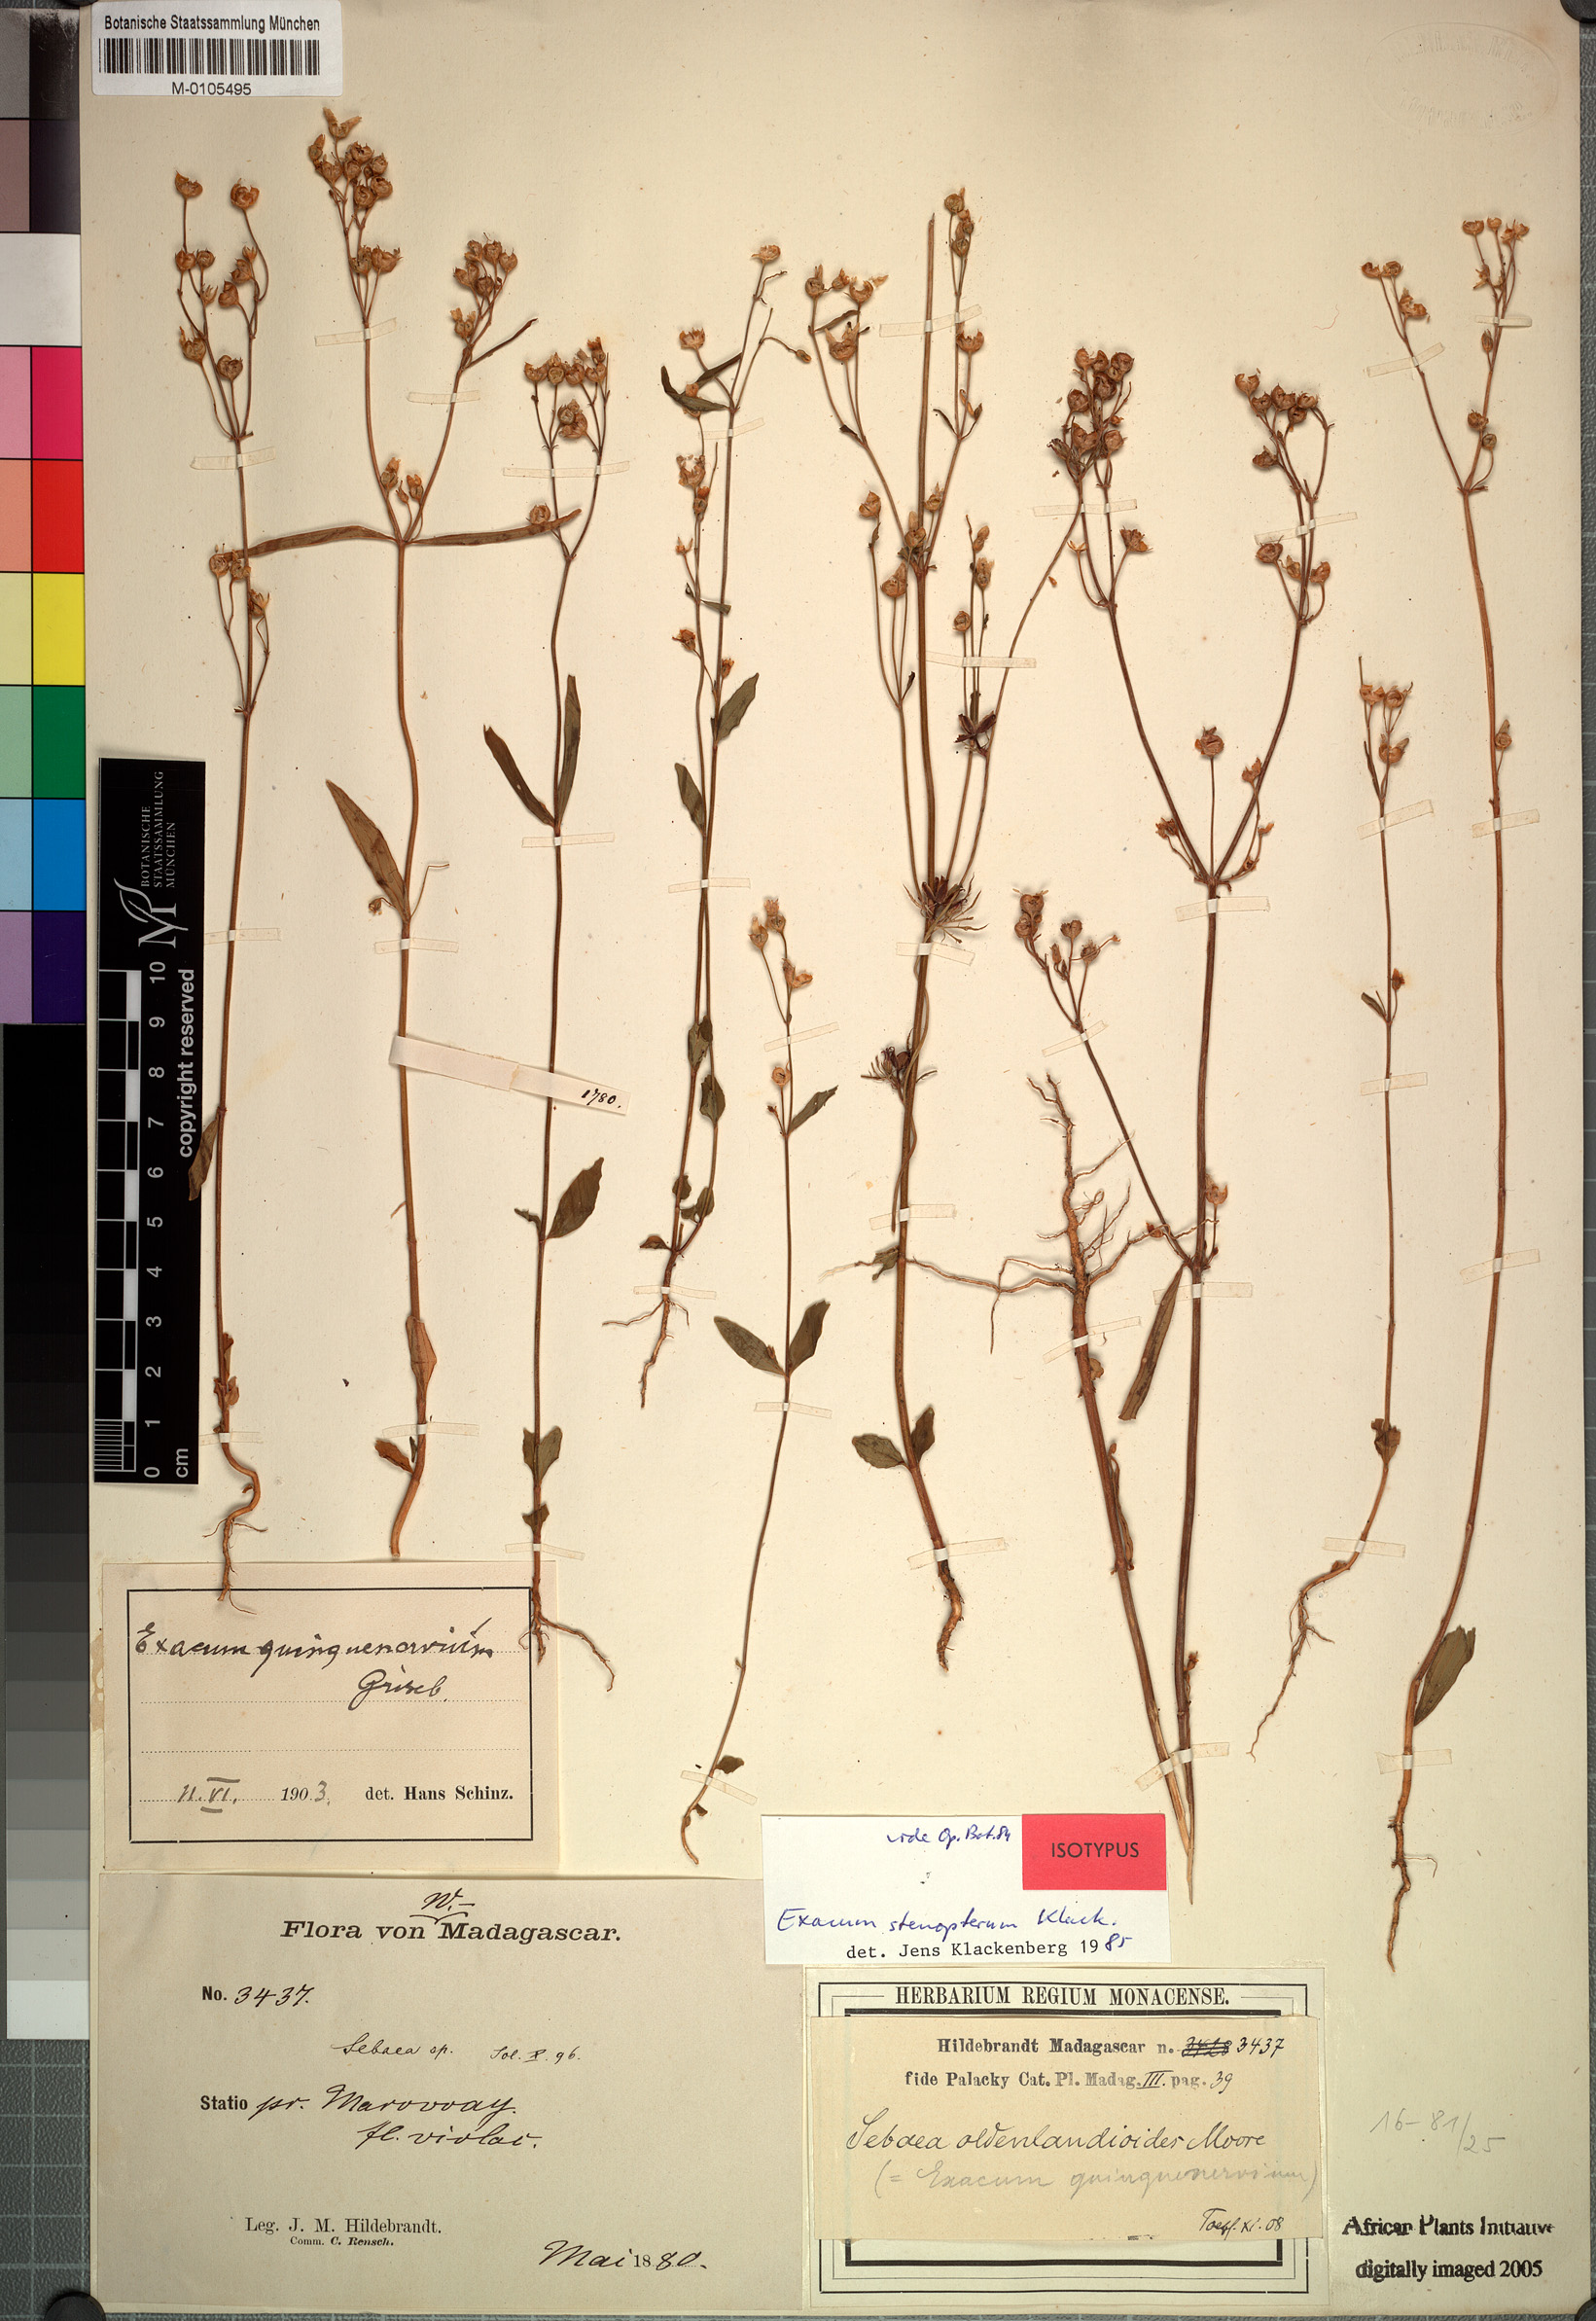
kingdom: Plantae
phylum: Tracheophyta
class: Magnoliopsida
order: Gentianales
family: Gentianaceae
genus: Exacum
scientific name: Exacum stenopterum
